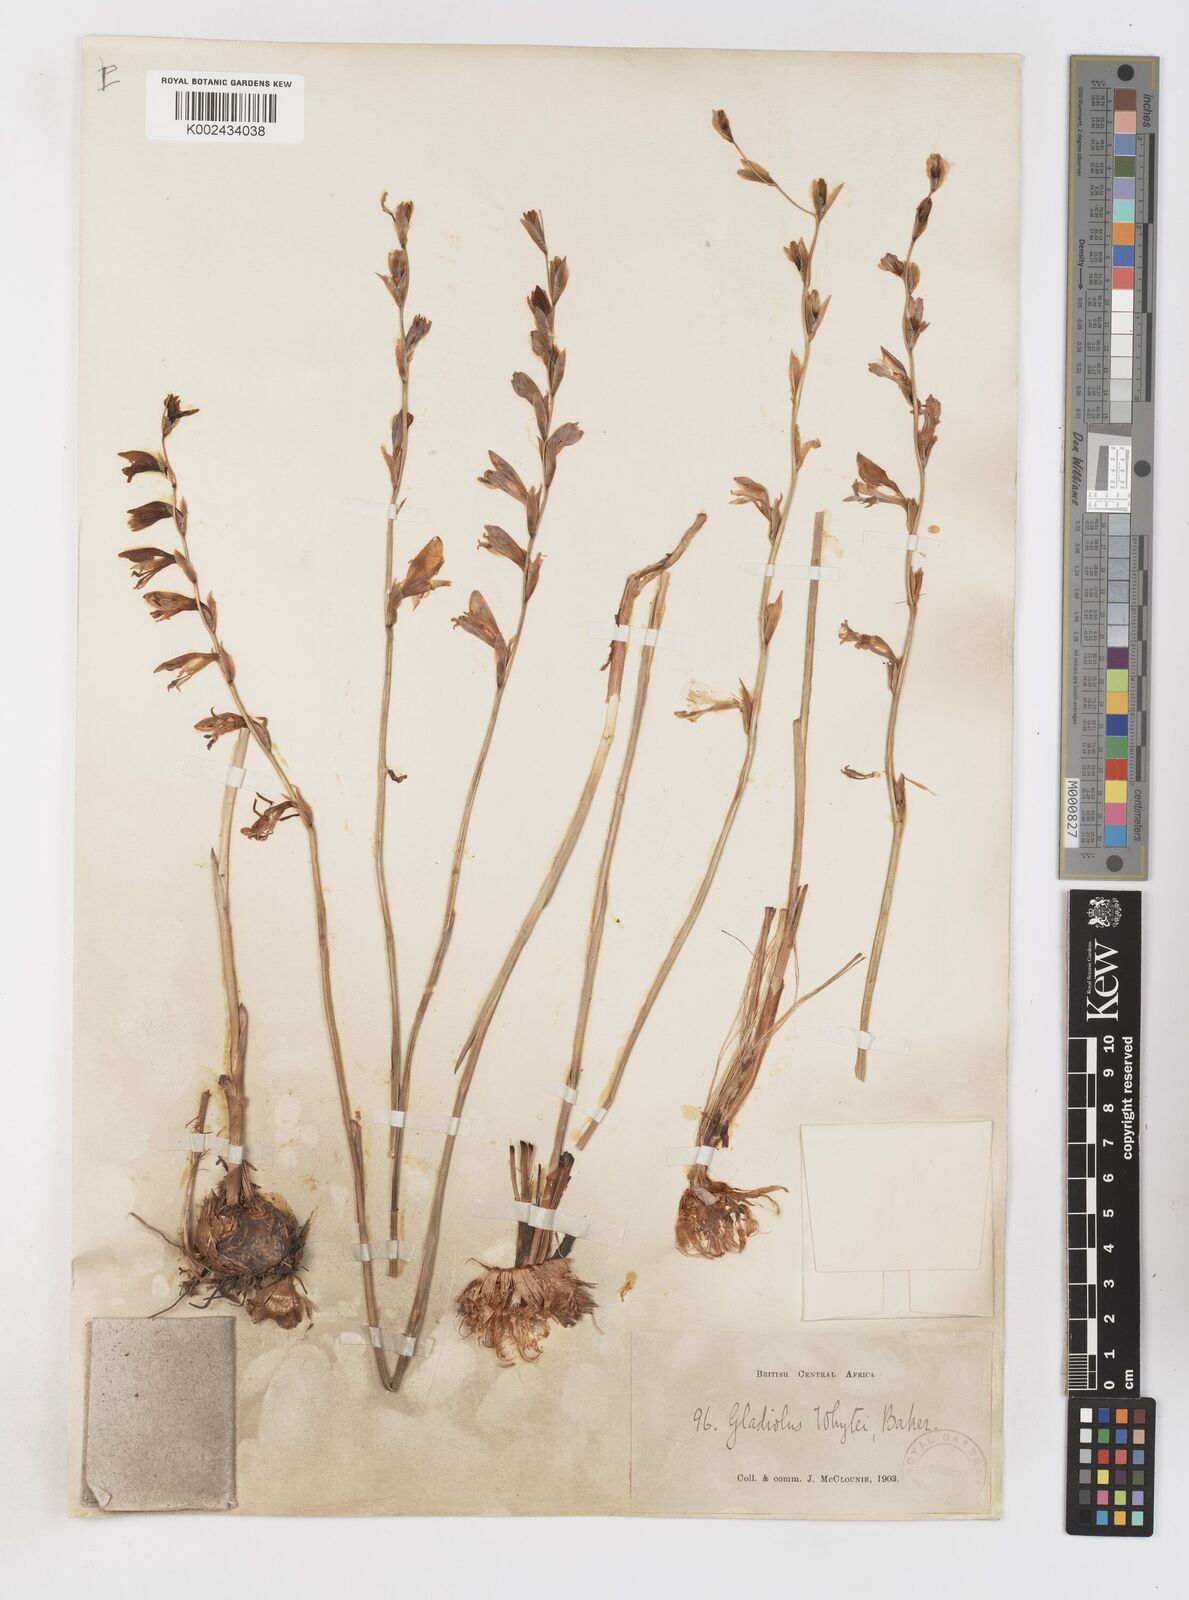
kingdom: Plantae
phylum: Tracheophyta
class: Liliopsida
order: Asparagales
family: Iridaceae
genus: Gladiolus
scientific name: Gladiolus atropurpureus
